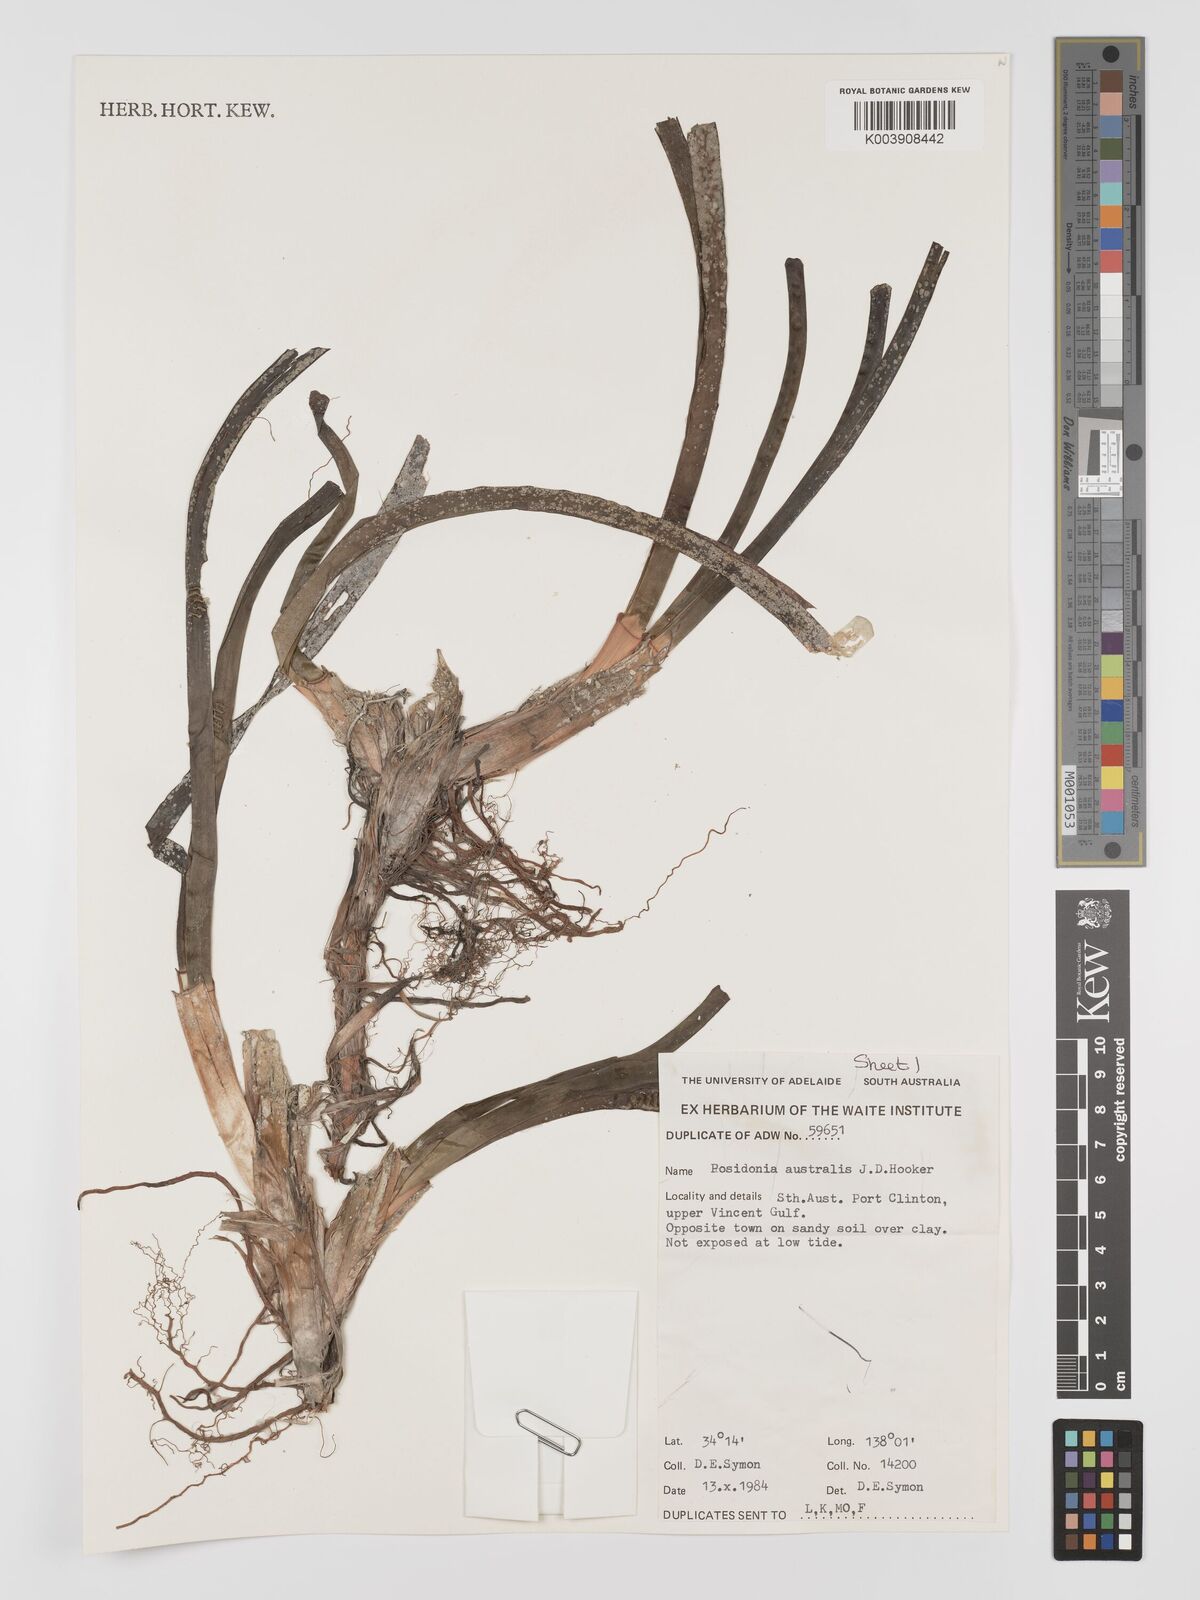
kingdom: Plantae
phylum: Tracheophyta
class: Liliopsida
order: Alismatales
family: Posidoniaceae
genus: Posidonia
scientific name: Posidonia australis
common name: Species code: pa
